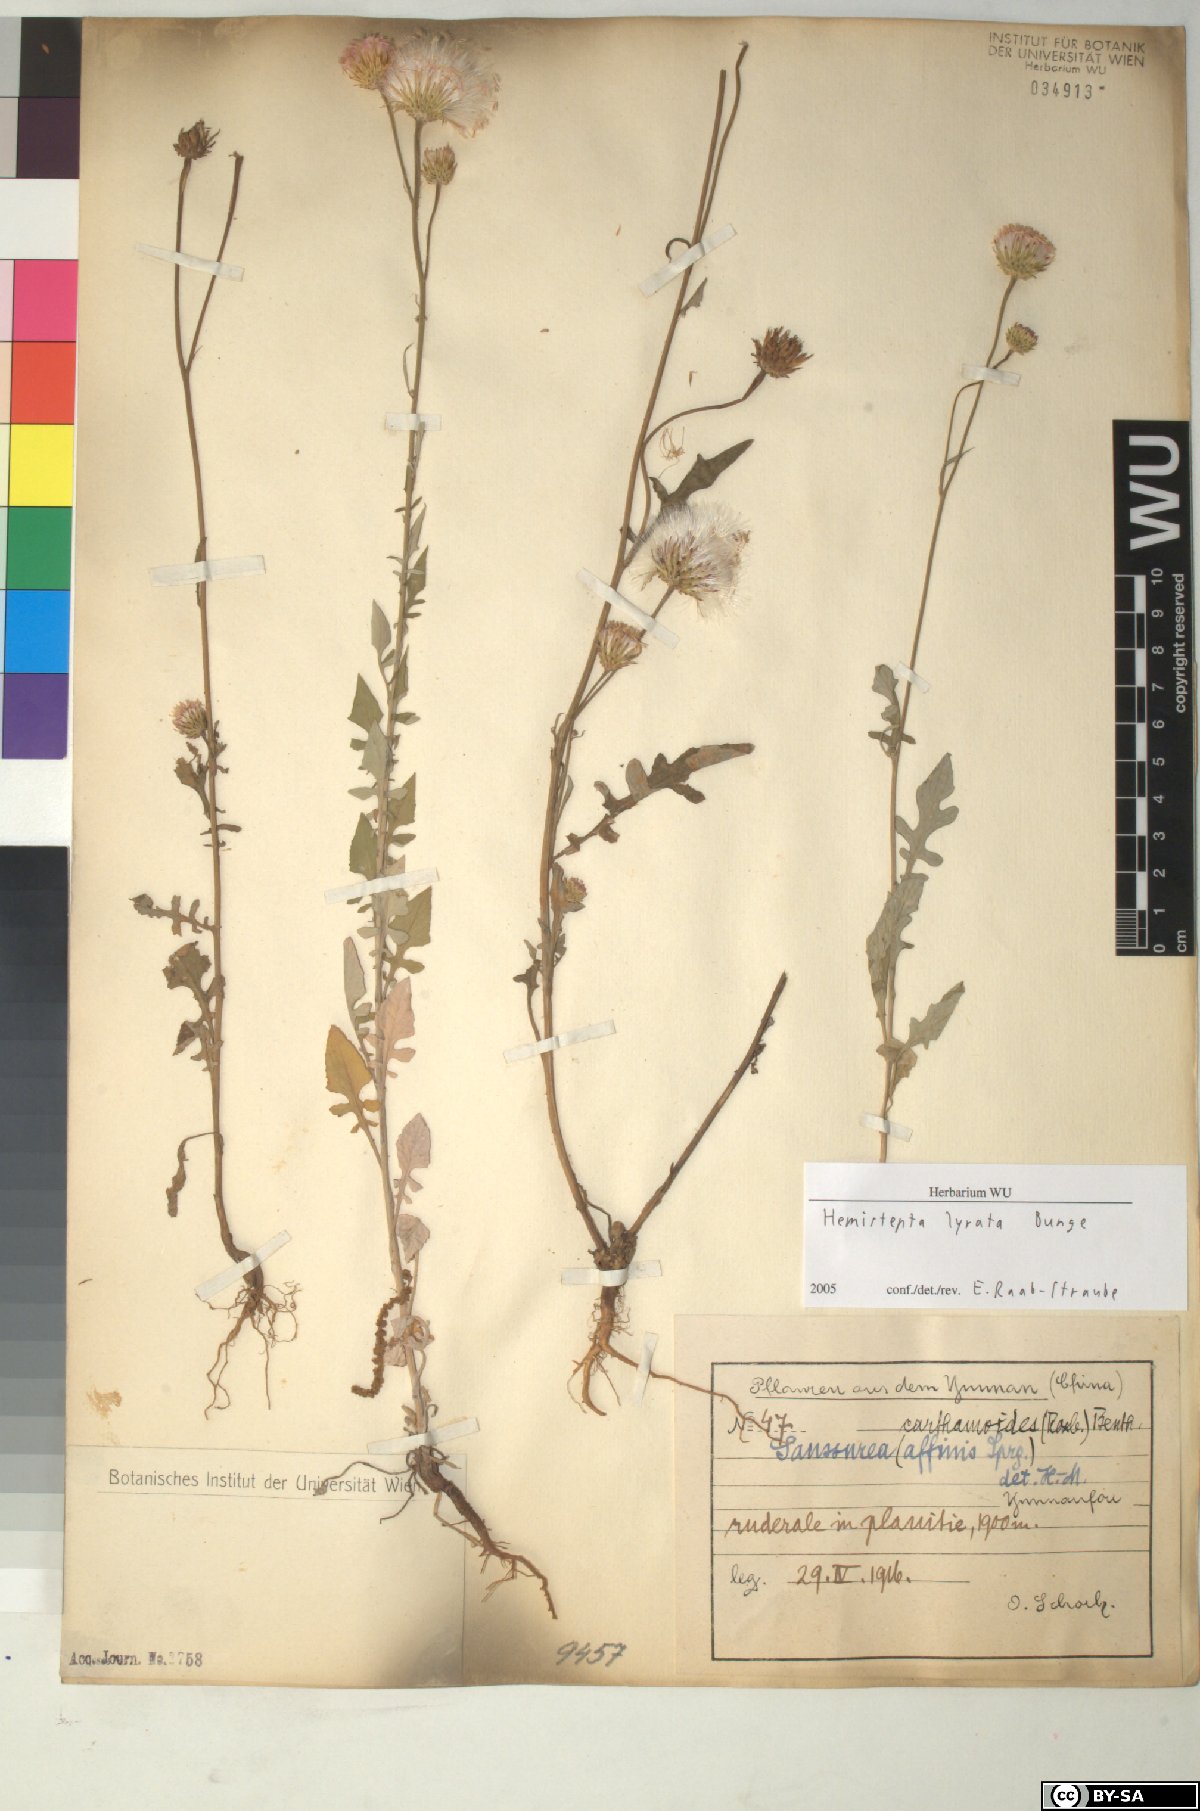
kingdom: Plantae
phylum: Tracheophyta
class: Magnoliopsida
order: Asterales
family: Asteraceae
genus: Saussurea
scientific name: Saussurea Hemisteptia lyrata
